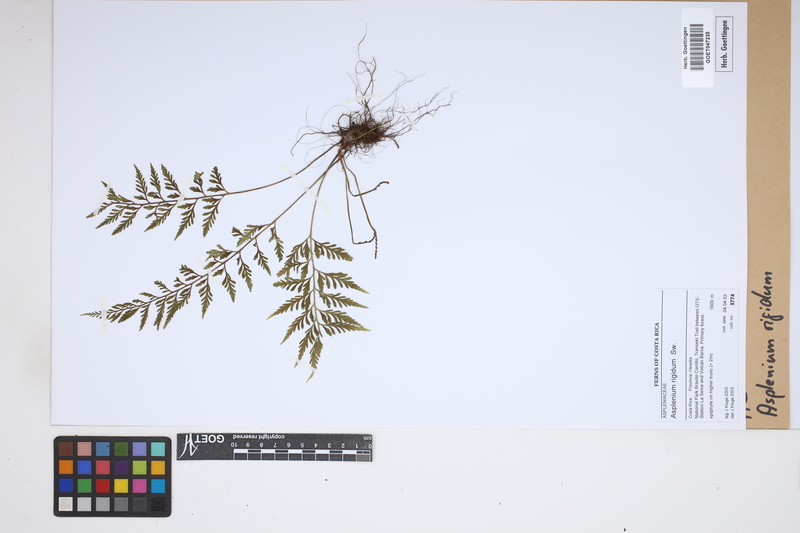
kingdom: Plantae
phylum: Tracheophyta
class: Polypodiopsida
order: Polypodiales
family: Aspleniaceae
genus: Asplenium
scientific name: Asplenium cuspidatum
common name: Eared spleenwort
